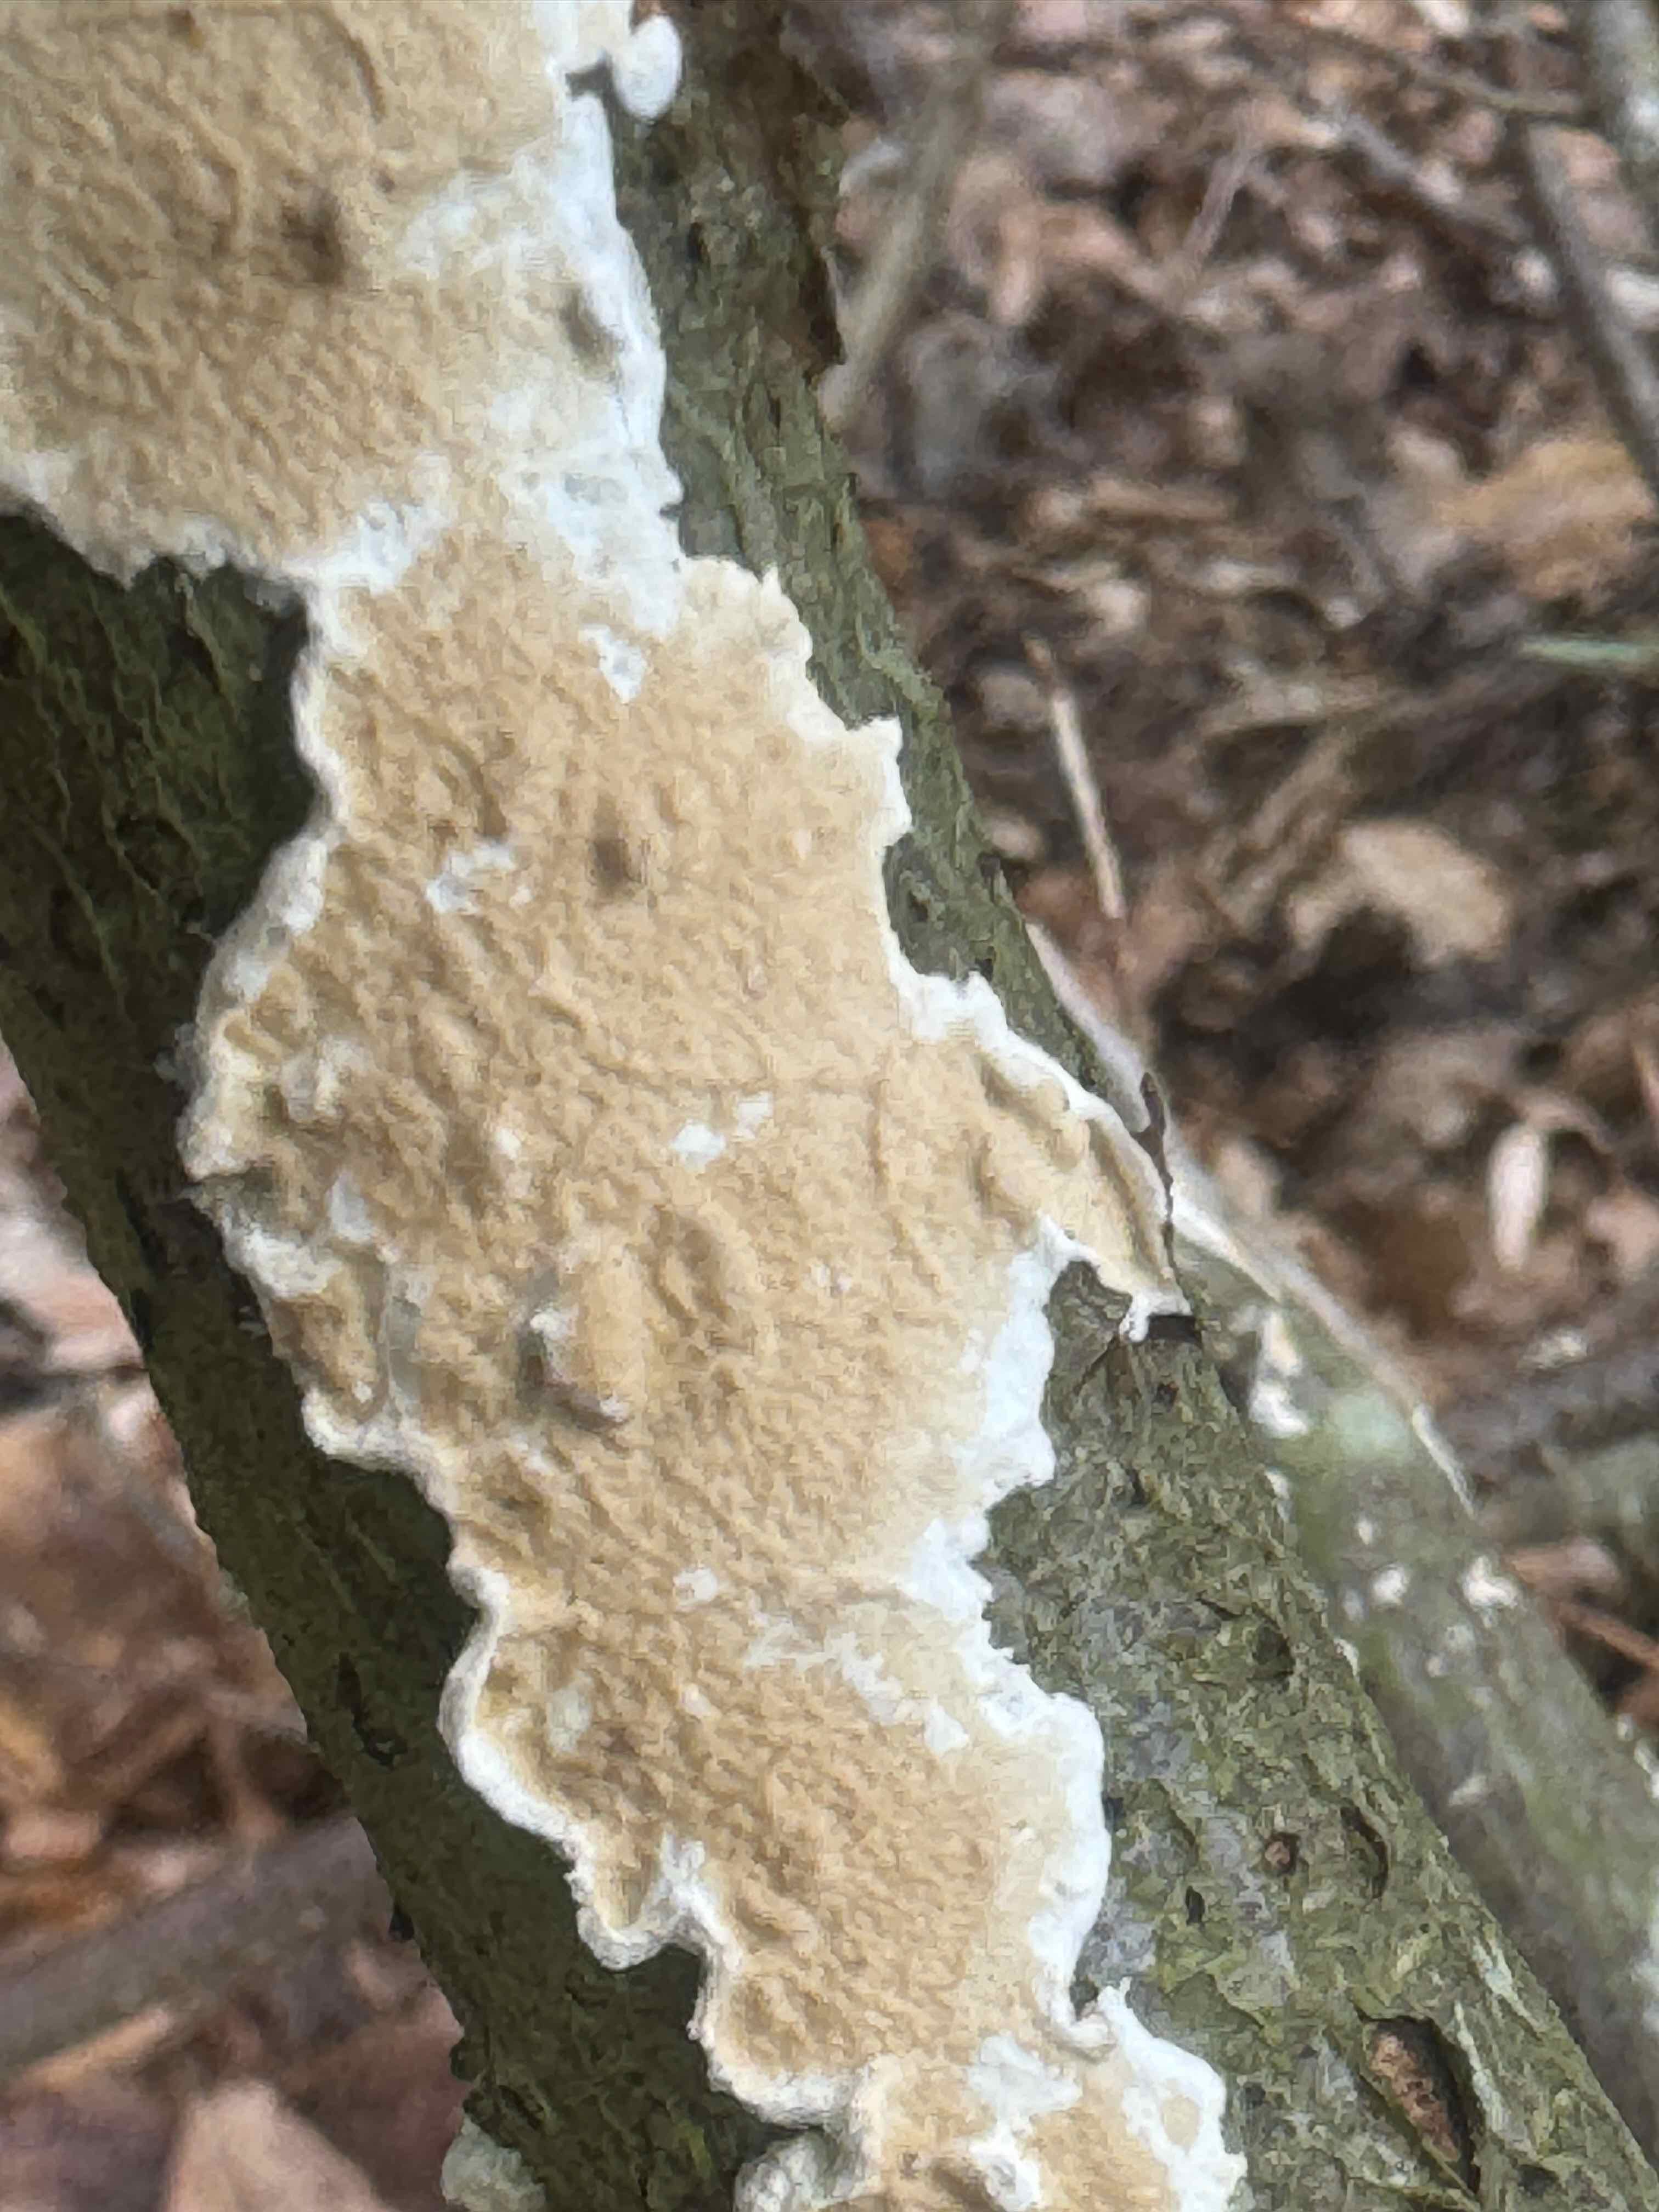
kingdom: Fungi
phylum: Basidiomycota
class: Agaricomycetes
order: Polyporales
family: Irpicaceae
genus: Byssomerulius
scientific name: Byssomerulius corium
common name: læder-åresvamp
